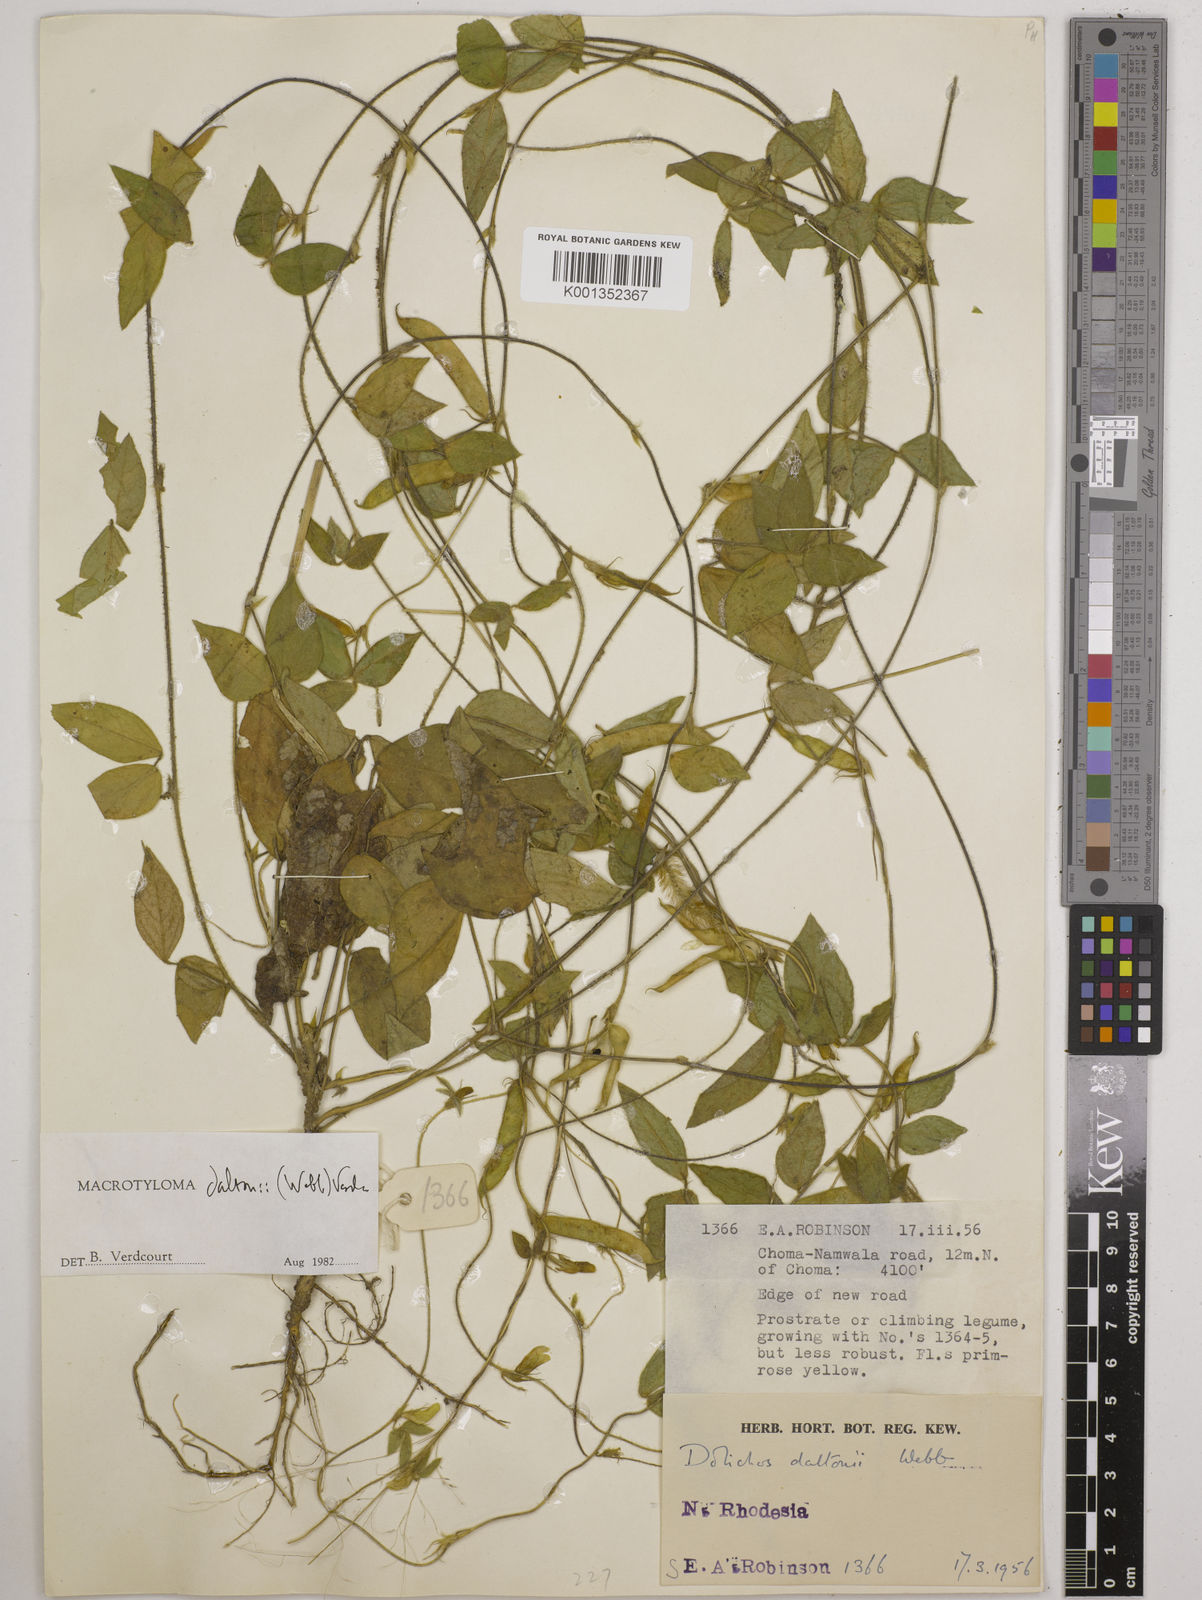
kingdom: Plantae
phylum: Tracheophyta
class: Magnoliopsida
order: Fabales
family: Fabaceae
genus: Macrotyloma
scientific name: Macrotyloma daltonii
